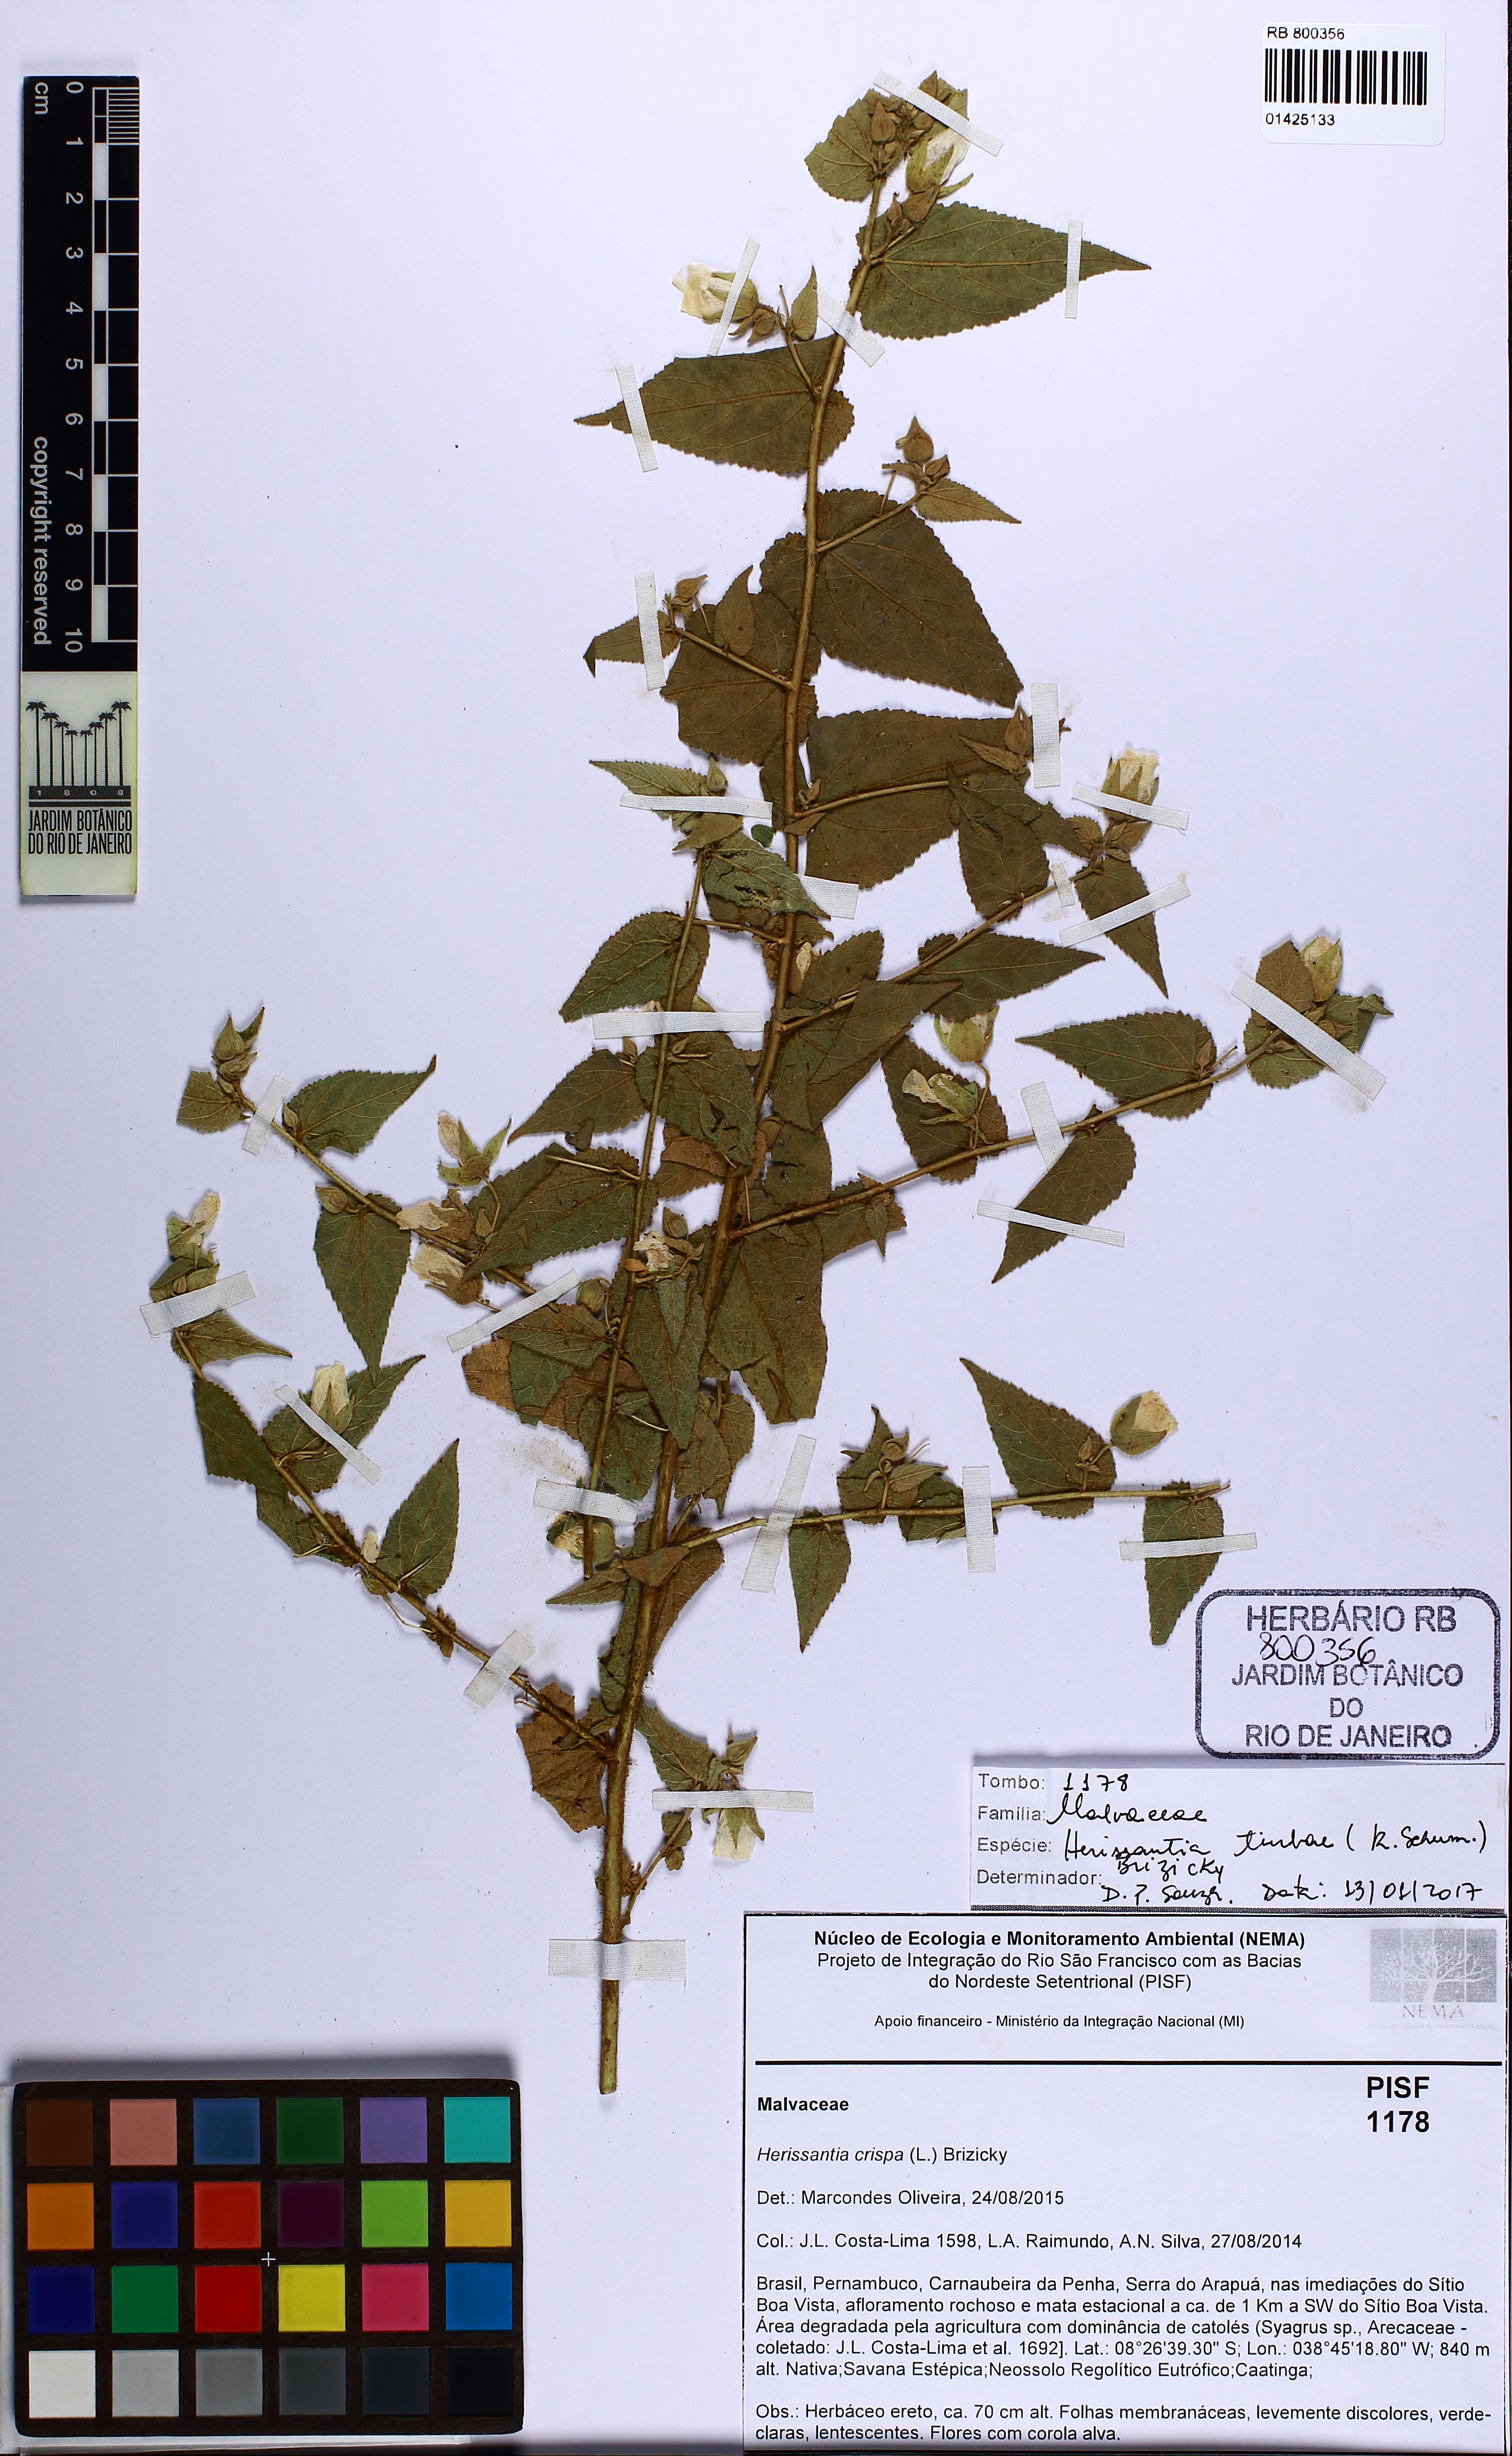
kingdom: Plantae
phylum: Tracheophyta
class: Magnoliopsida
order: Malvales
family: Malvaceae
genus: Herissantia
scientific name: Herissantia tiubae
